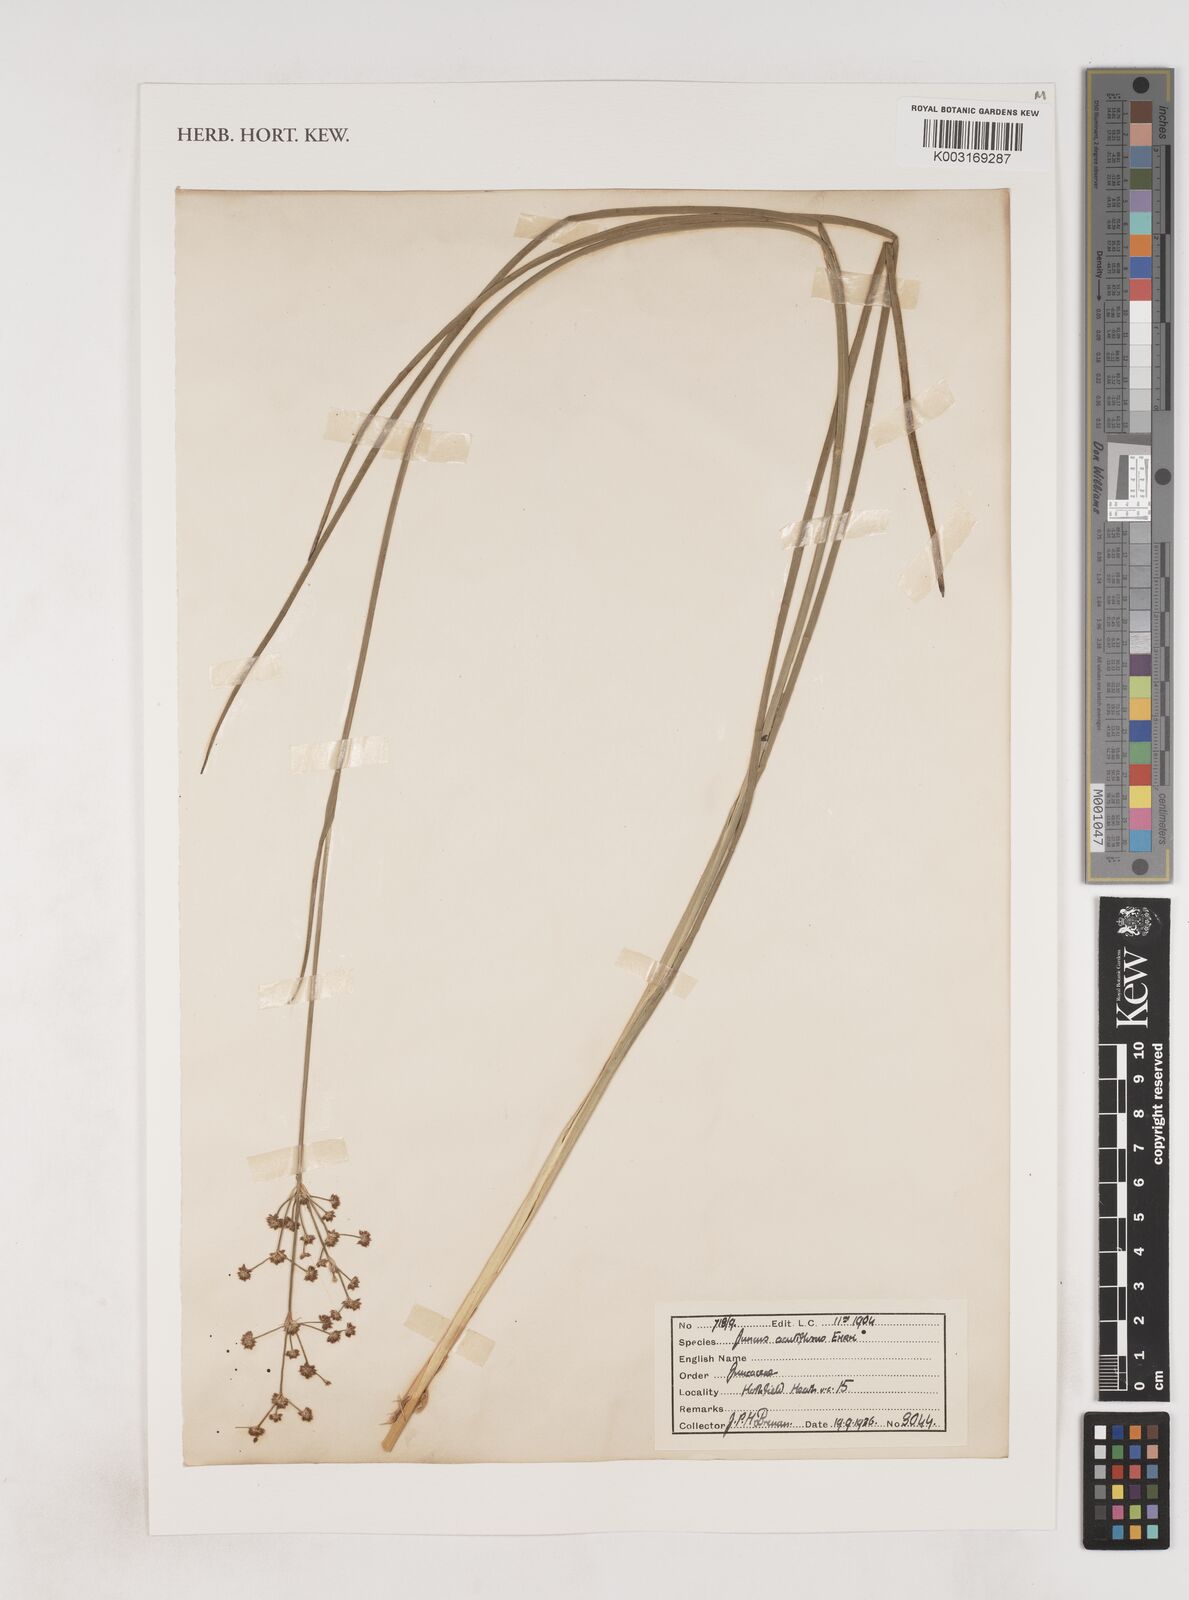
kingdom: Plantae
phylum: Tracheophyta
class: Liliopsida
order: Poales
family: Juncaceae
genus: Juncus
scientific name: Juncus acutiflorus
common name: Sharp-flowered rush
